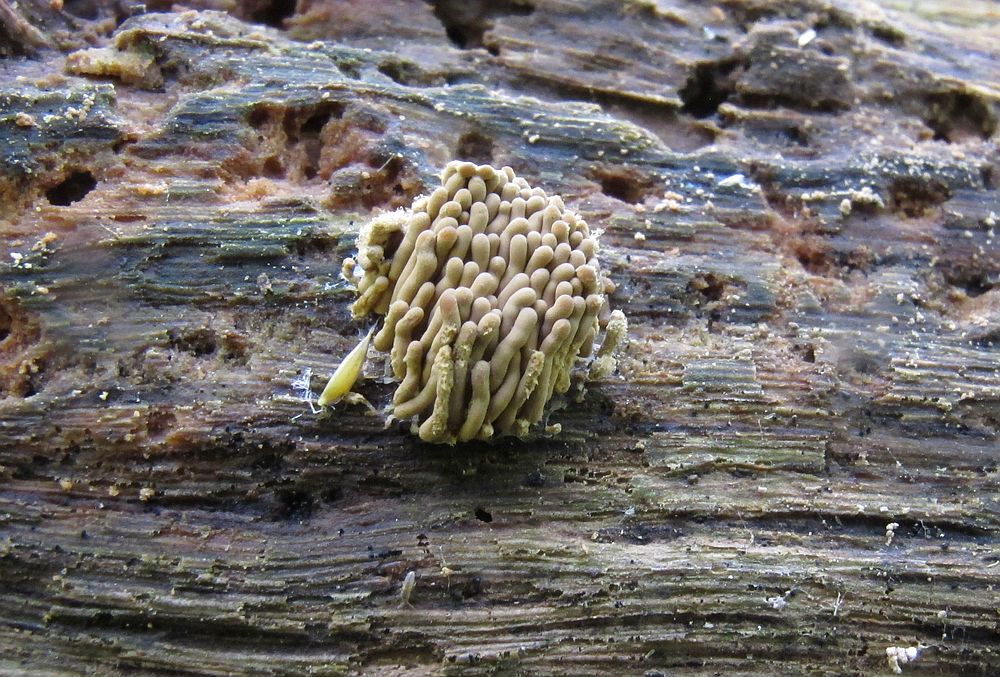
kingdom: Protozoa
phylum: Mycetozoa
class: Myxomycetes
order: Trichiales
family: Arcyriaceae
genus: Arcyria
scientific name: Arcyria obvelata
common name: okkergul skålsvøb
